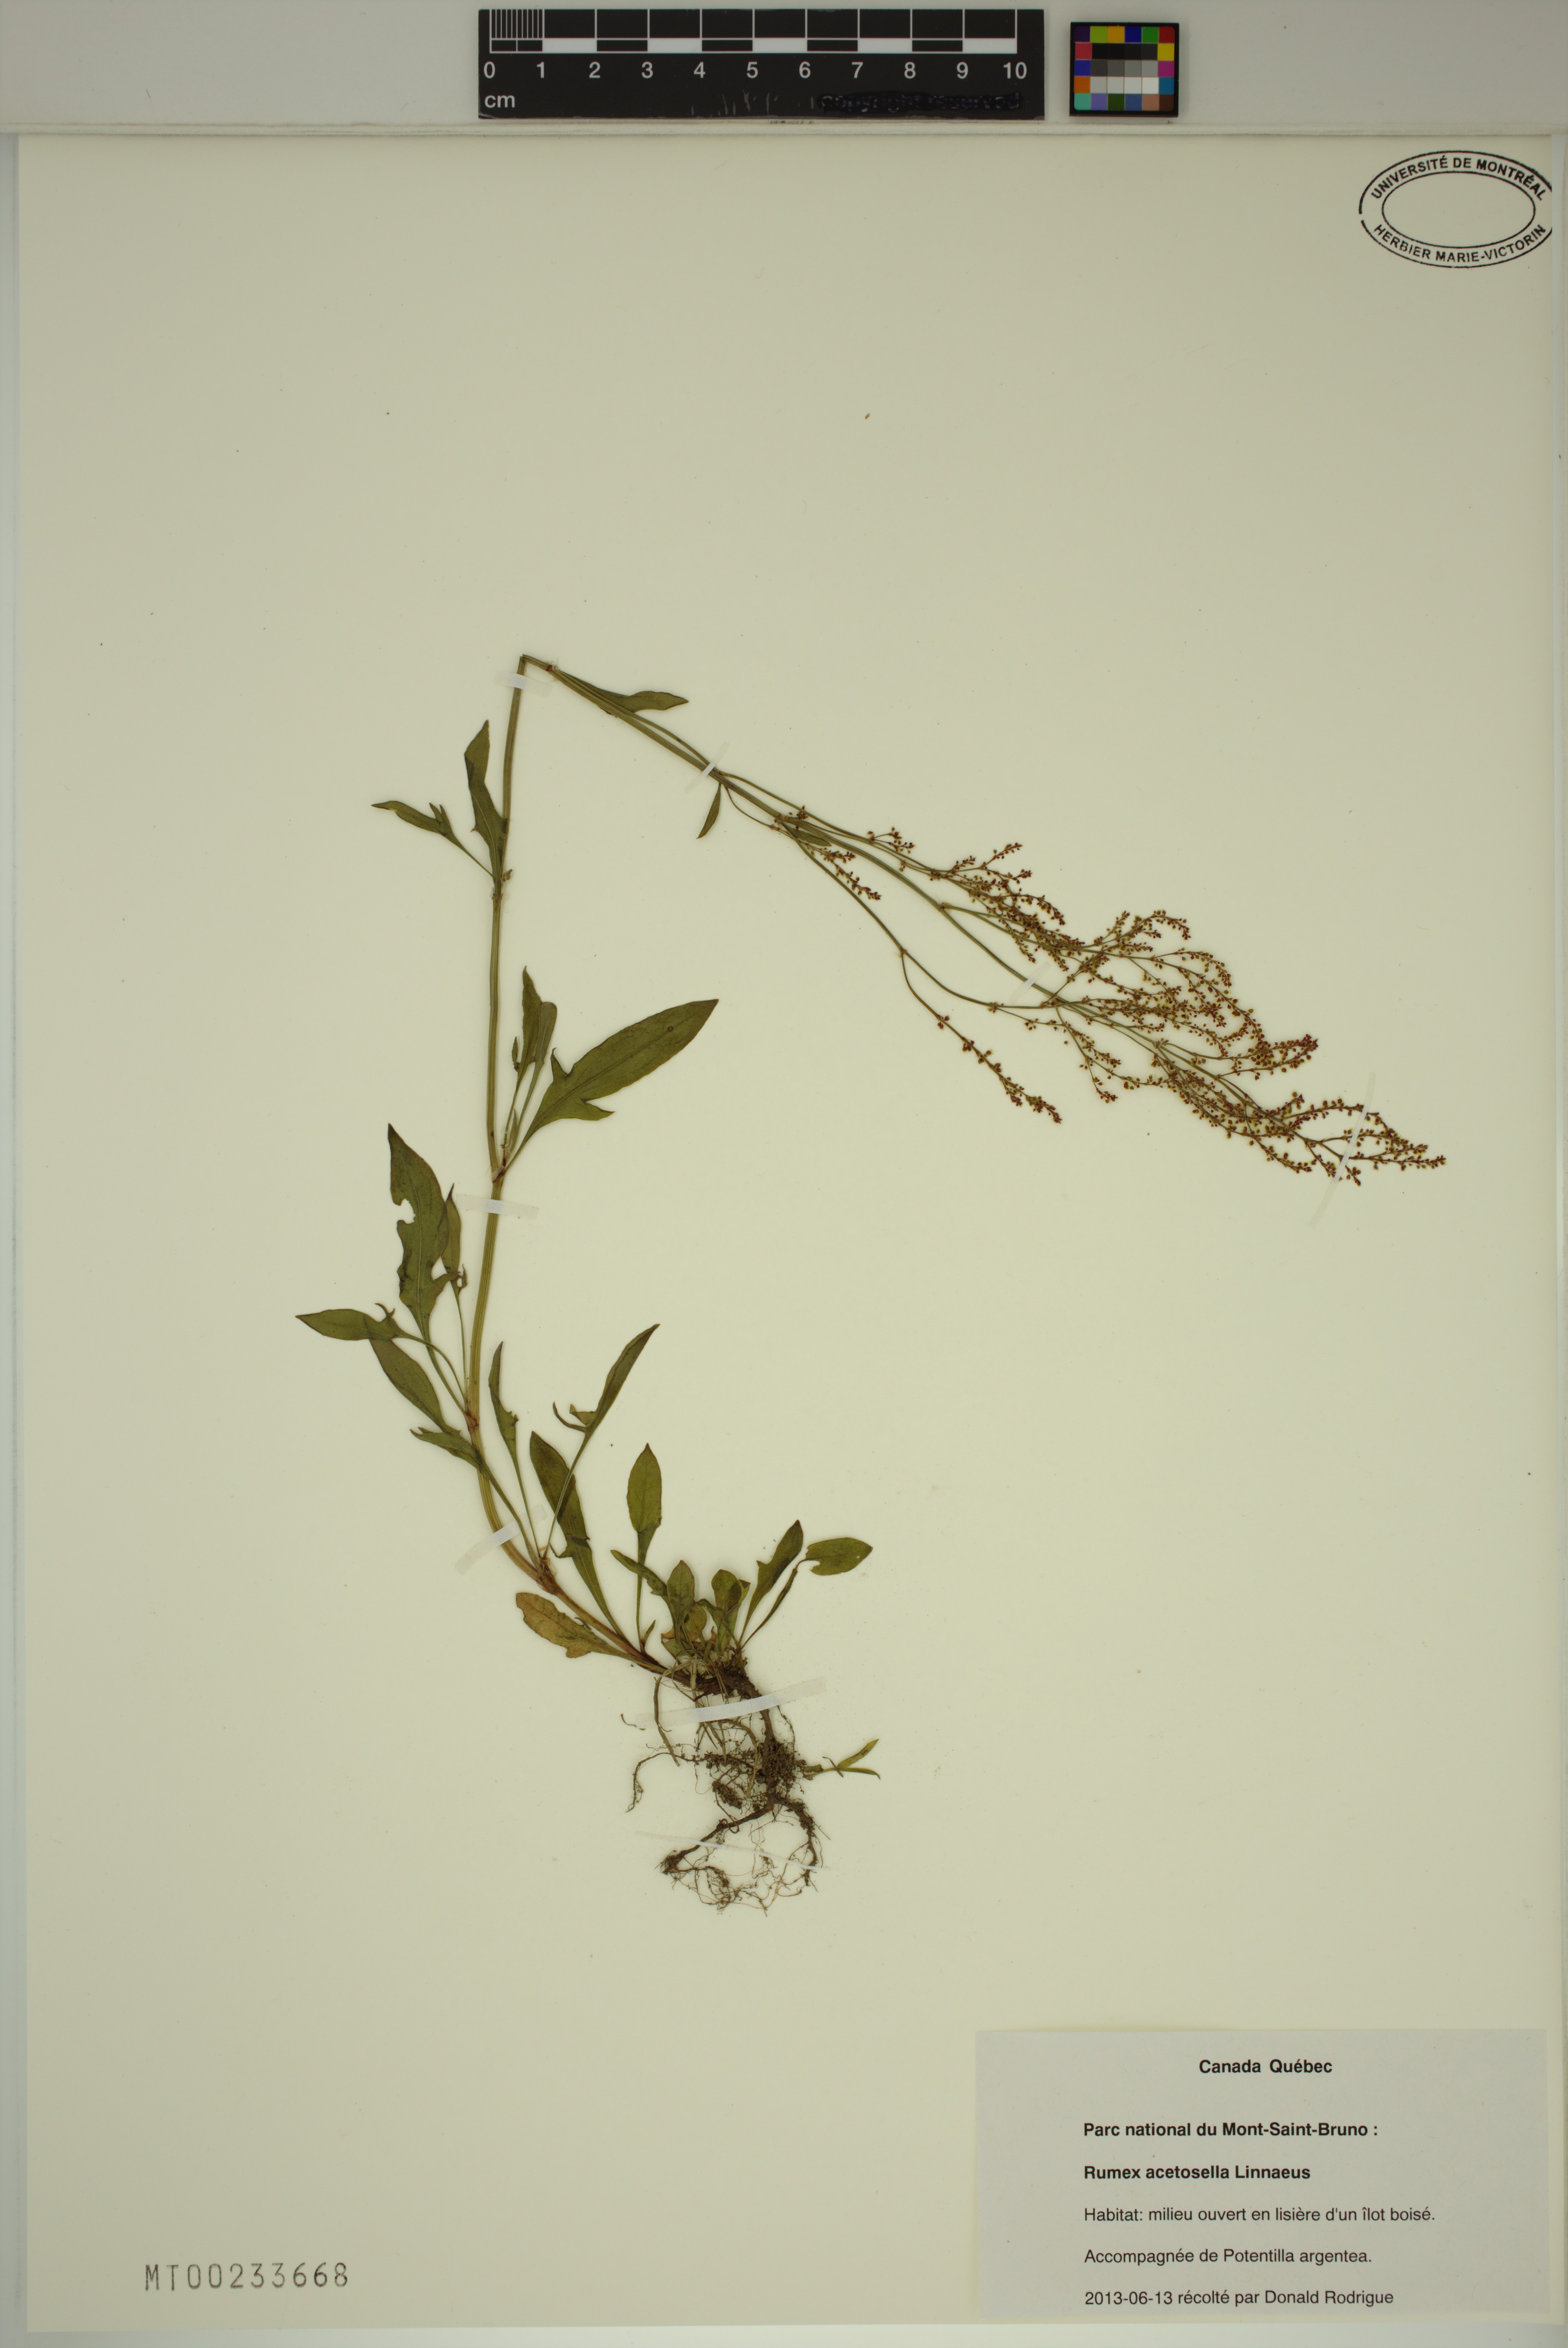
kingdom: Plantae
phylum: Tracheophyta
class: Magnoliopsida
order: Caryophyllales
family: Polygonaceae
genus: Rumex
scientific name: Rumex acetosella
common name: Common sheep sorrel
